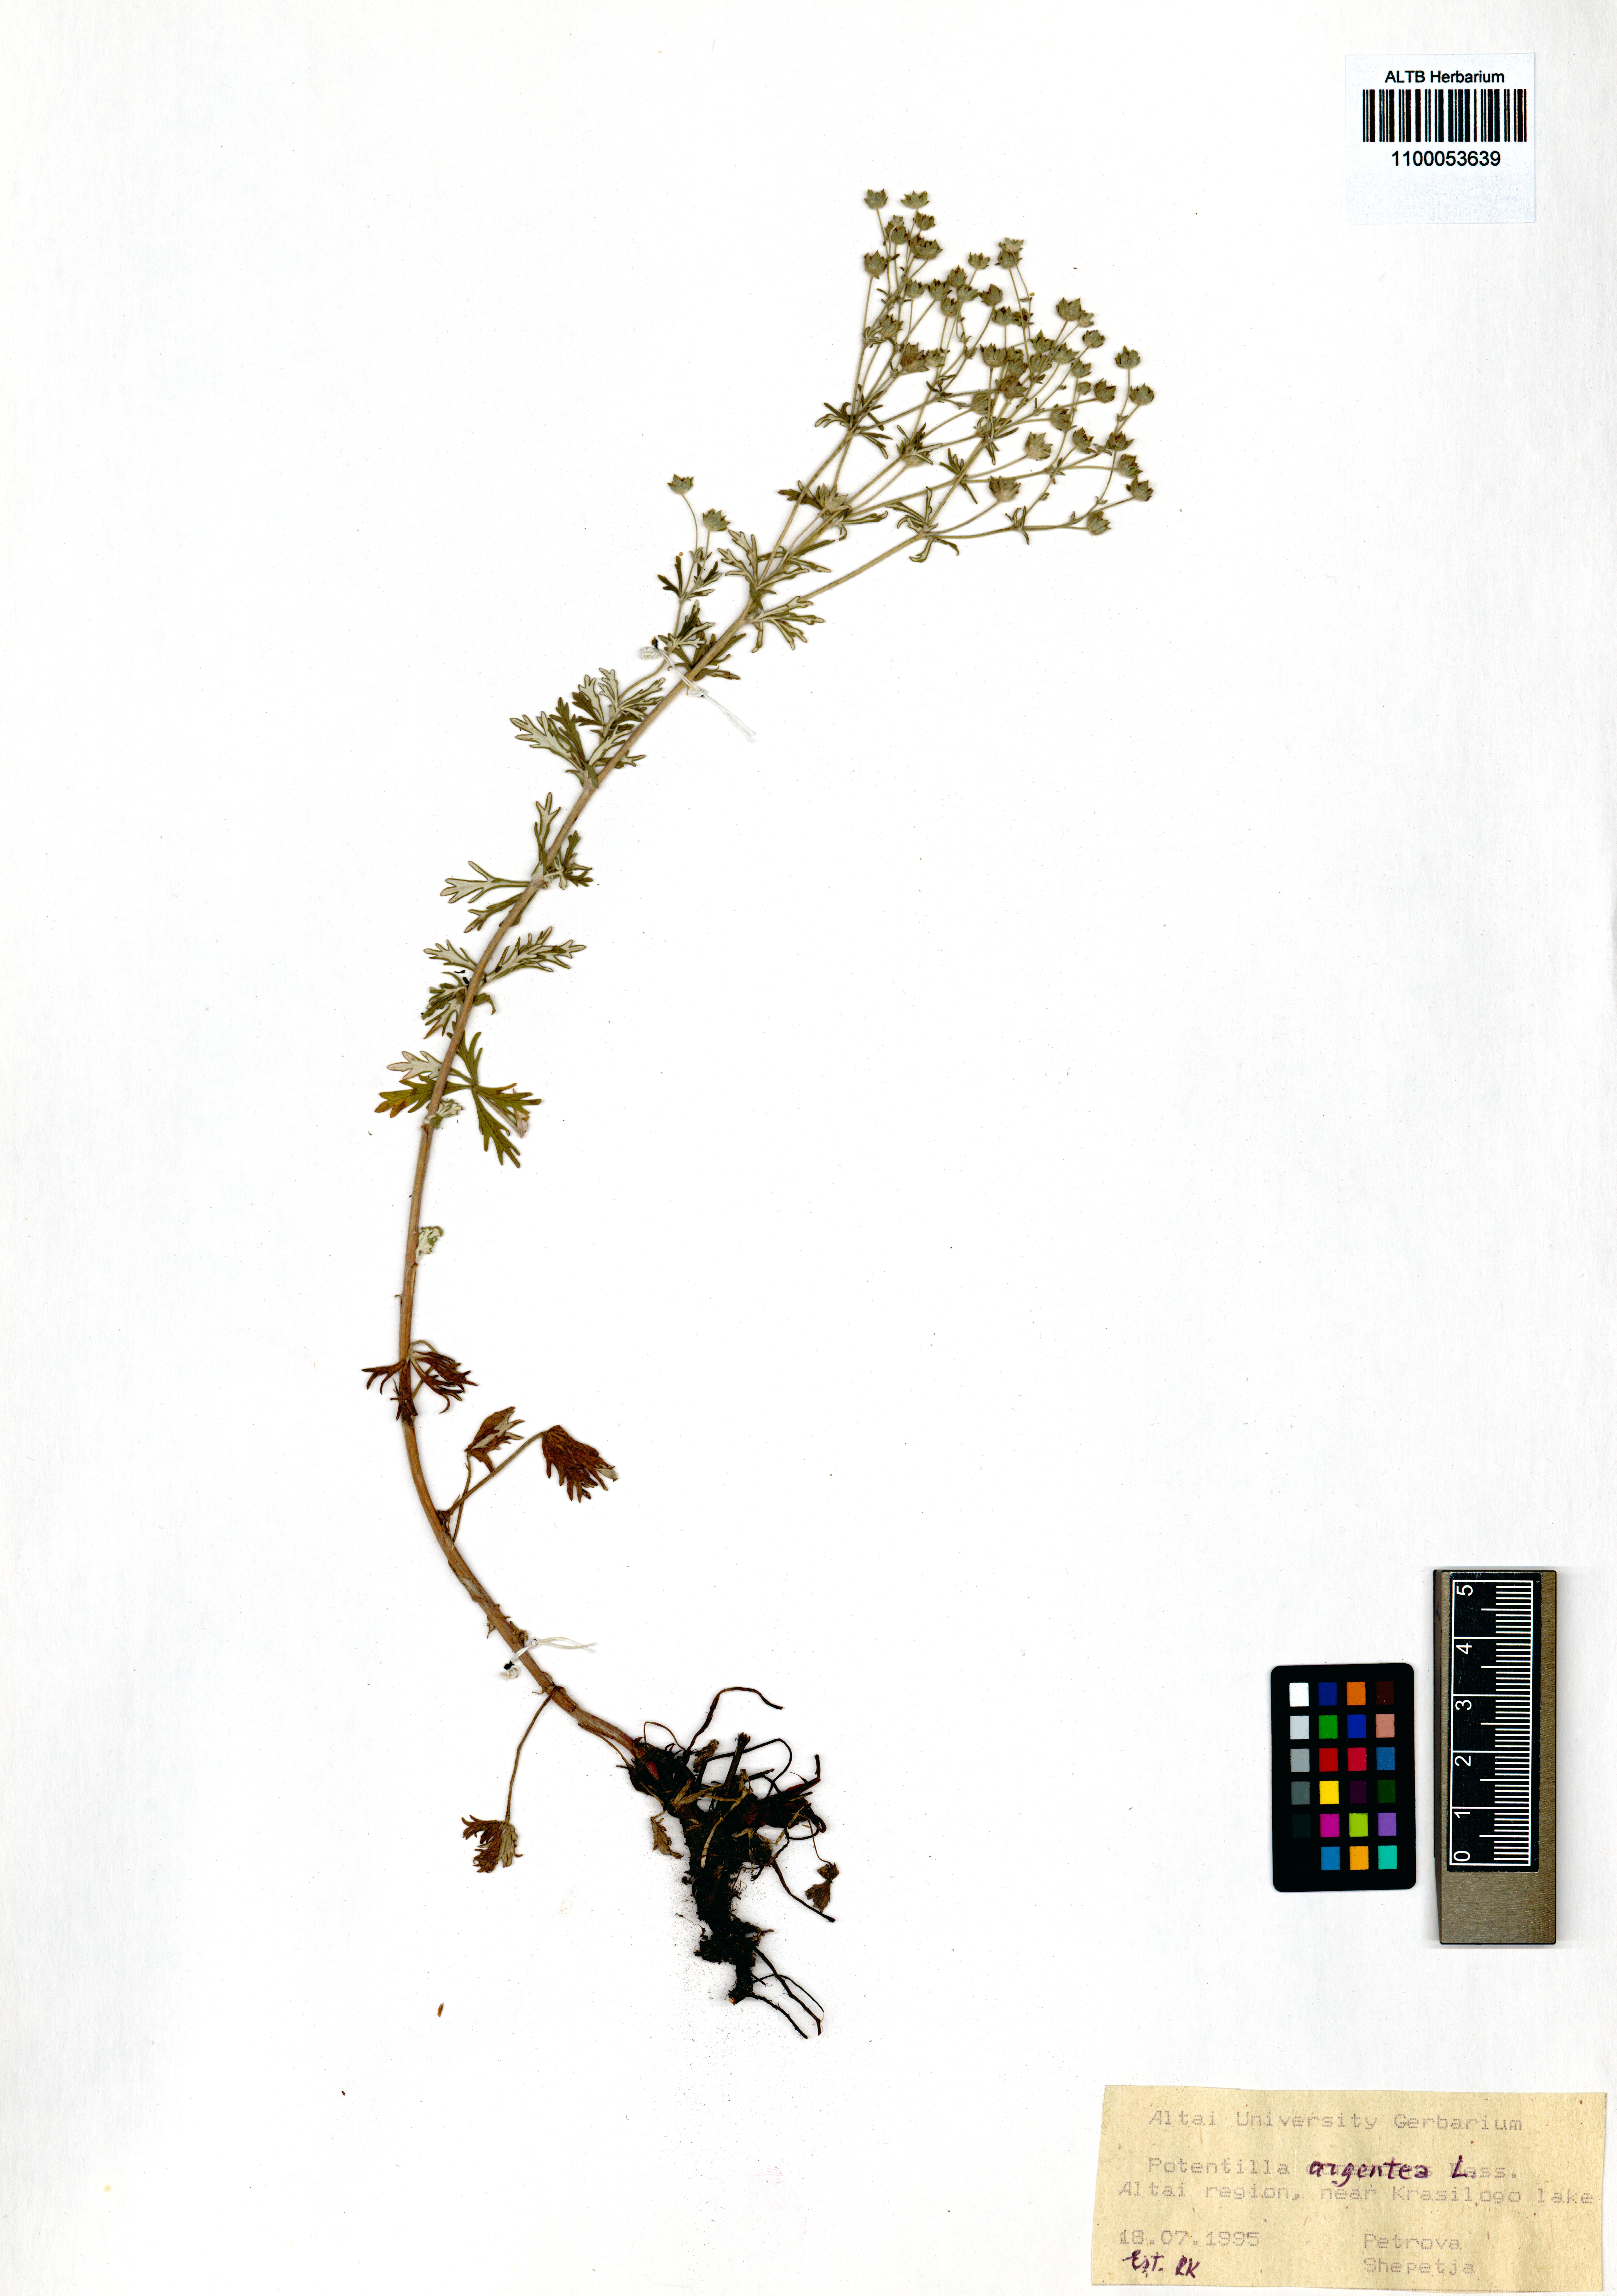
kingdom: Plantae
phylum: Tracheophyta
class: Magnoliopsida
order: Rosales
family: Rosaceae
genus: Potentilla
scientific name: Potentilla argentea
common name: Hoary cinquefoil
